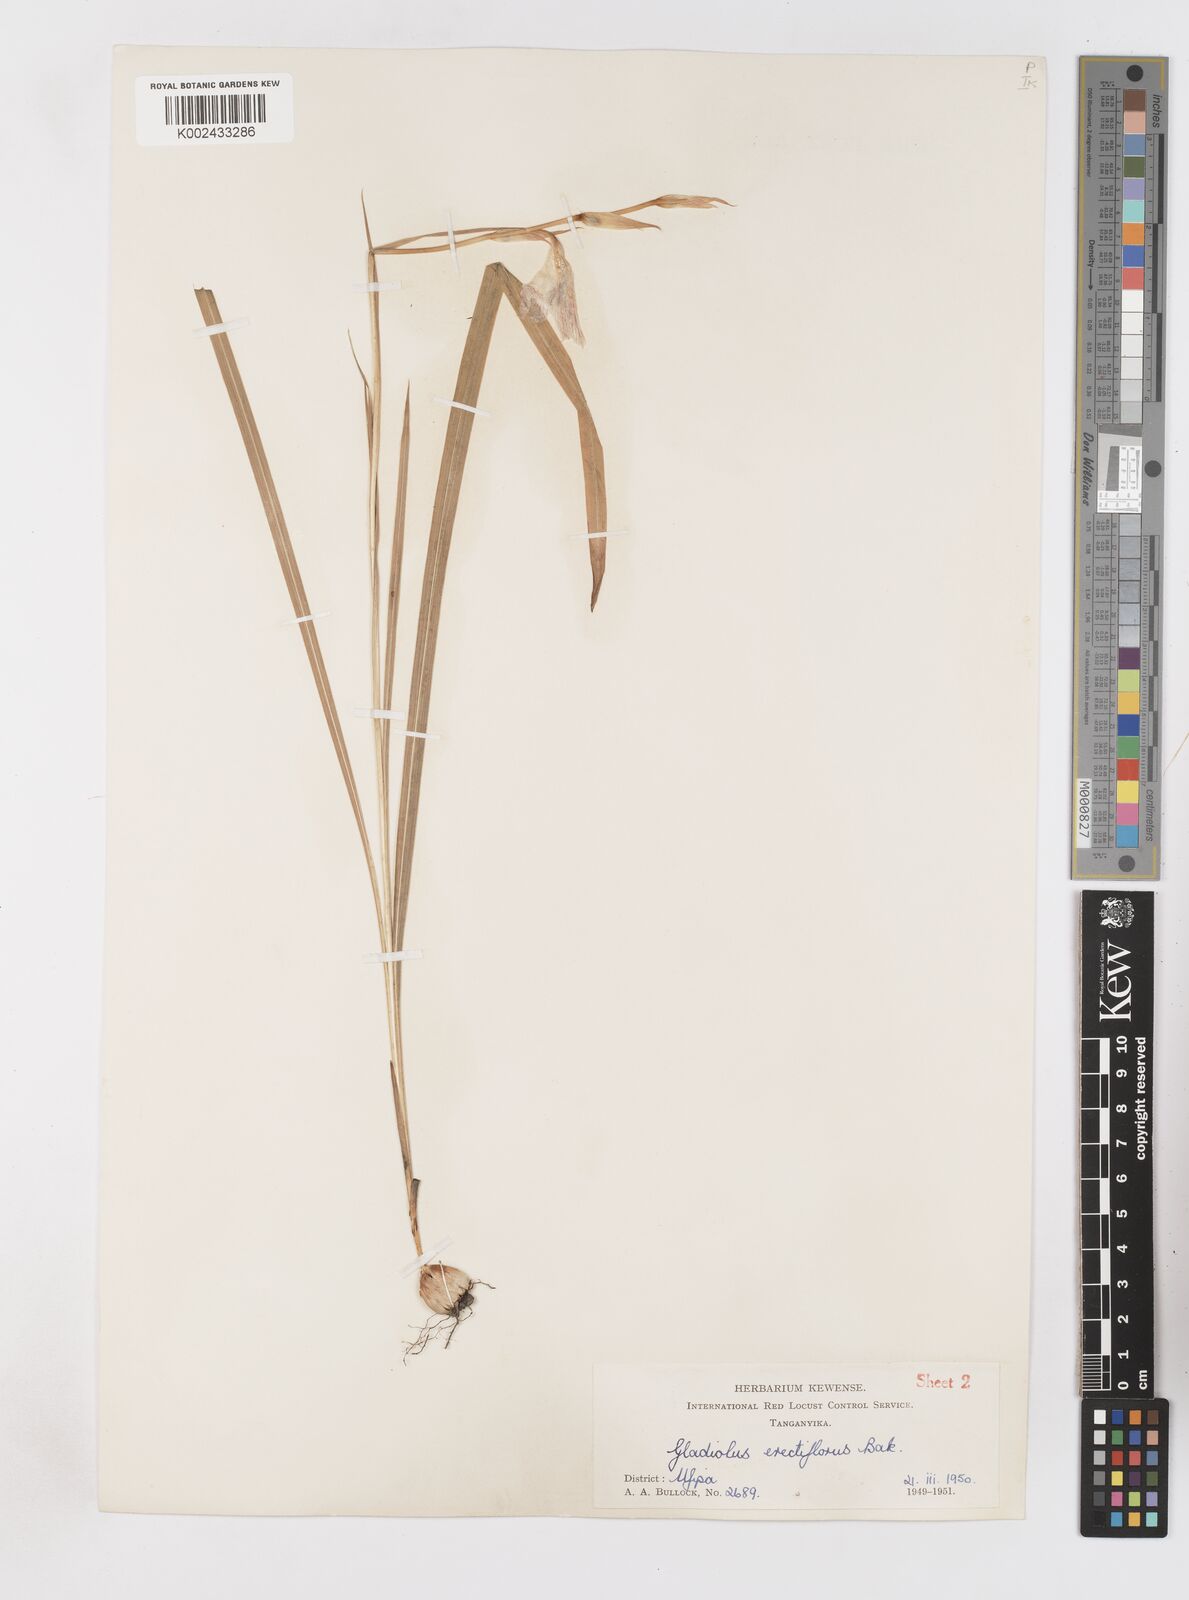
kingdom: Plantae
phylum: Tracheophyta
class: Liliopsida
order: Asparagales
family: Iridaceae
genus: Gladiolus
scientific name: Gladiolus erectiflorus
